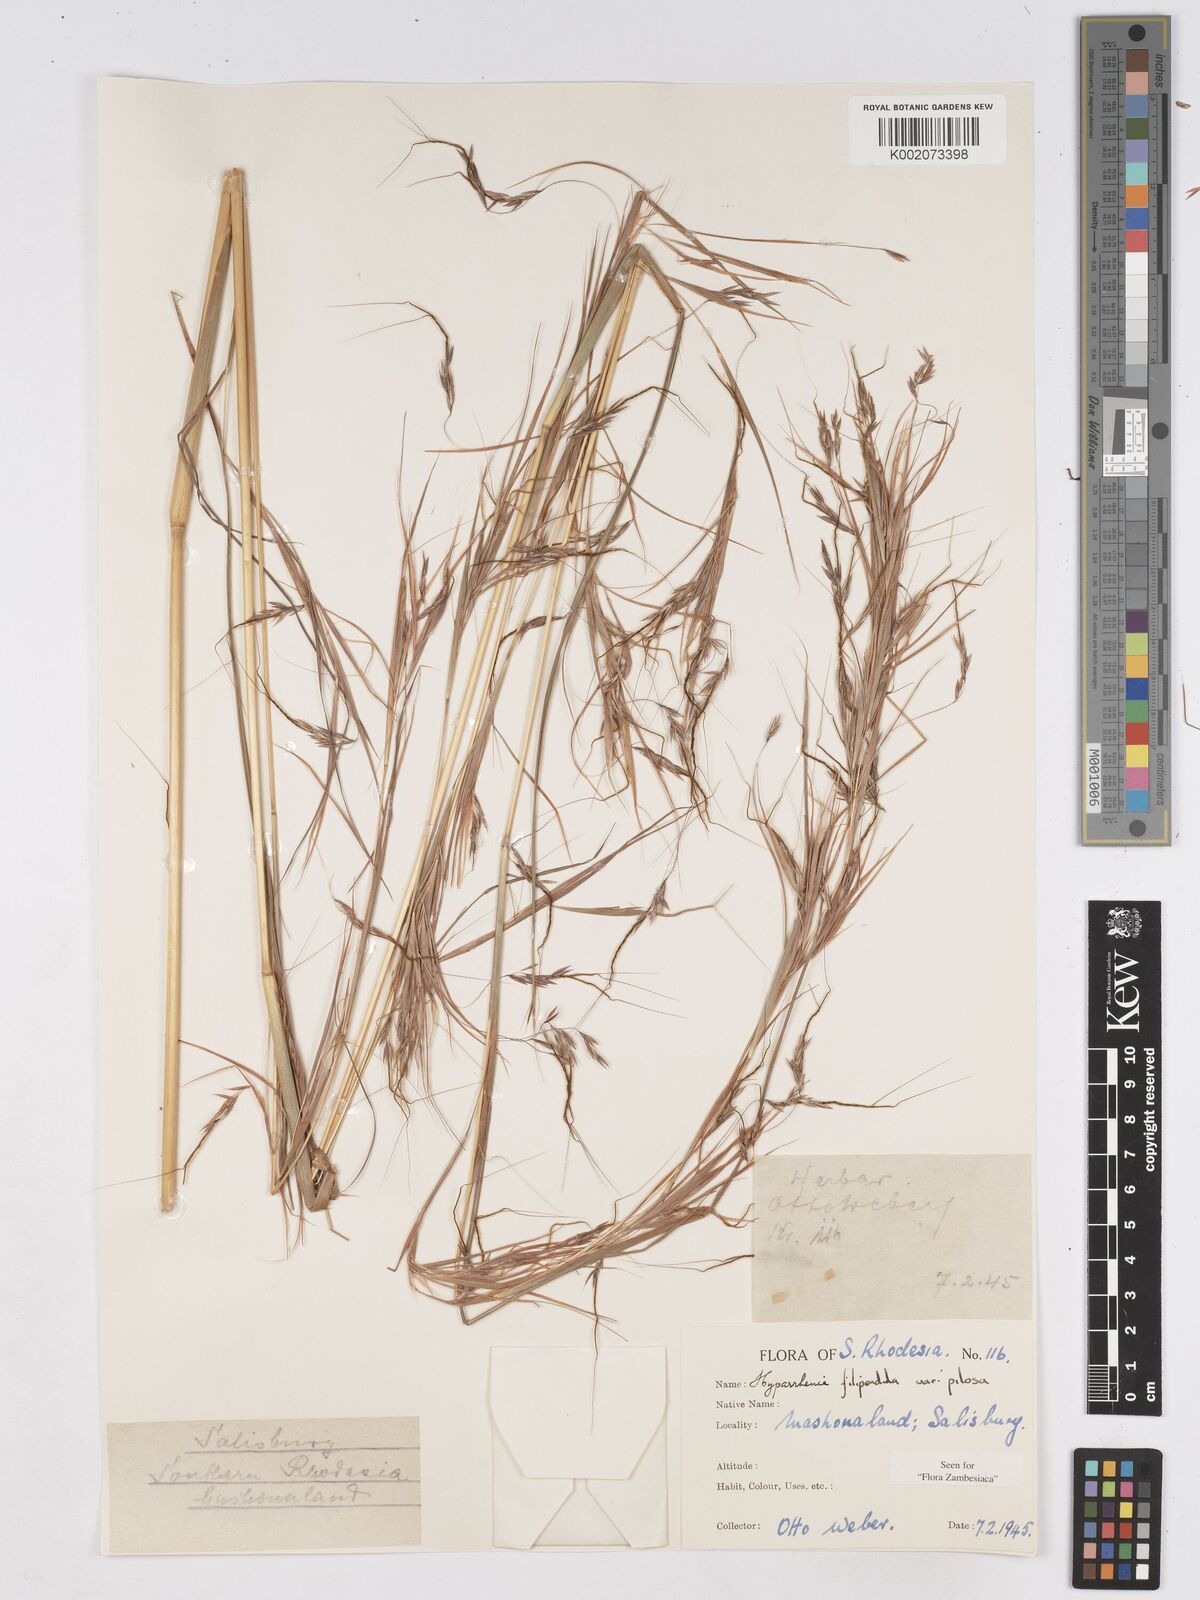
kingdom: Plantae
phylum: Tracheophyta
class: Liliopsida
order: Poales
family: Poaceae
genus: Hyparrhenia
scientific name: Hyparrhenia filipendula
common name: Tambookie grass
